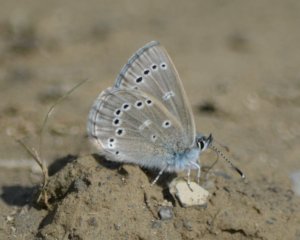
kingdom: Animalia
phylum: Arthropoda
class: Insecta
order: Lepidoptera
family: Lycaenidae
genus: Glaucopsyche
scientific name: Glaucopsyche lygdamus
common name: Silvery Blue
